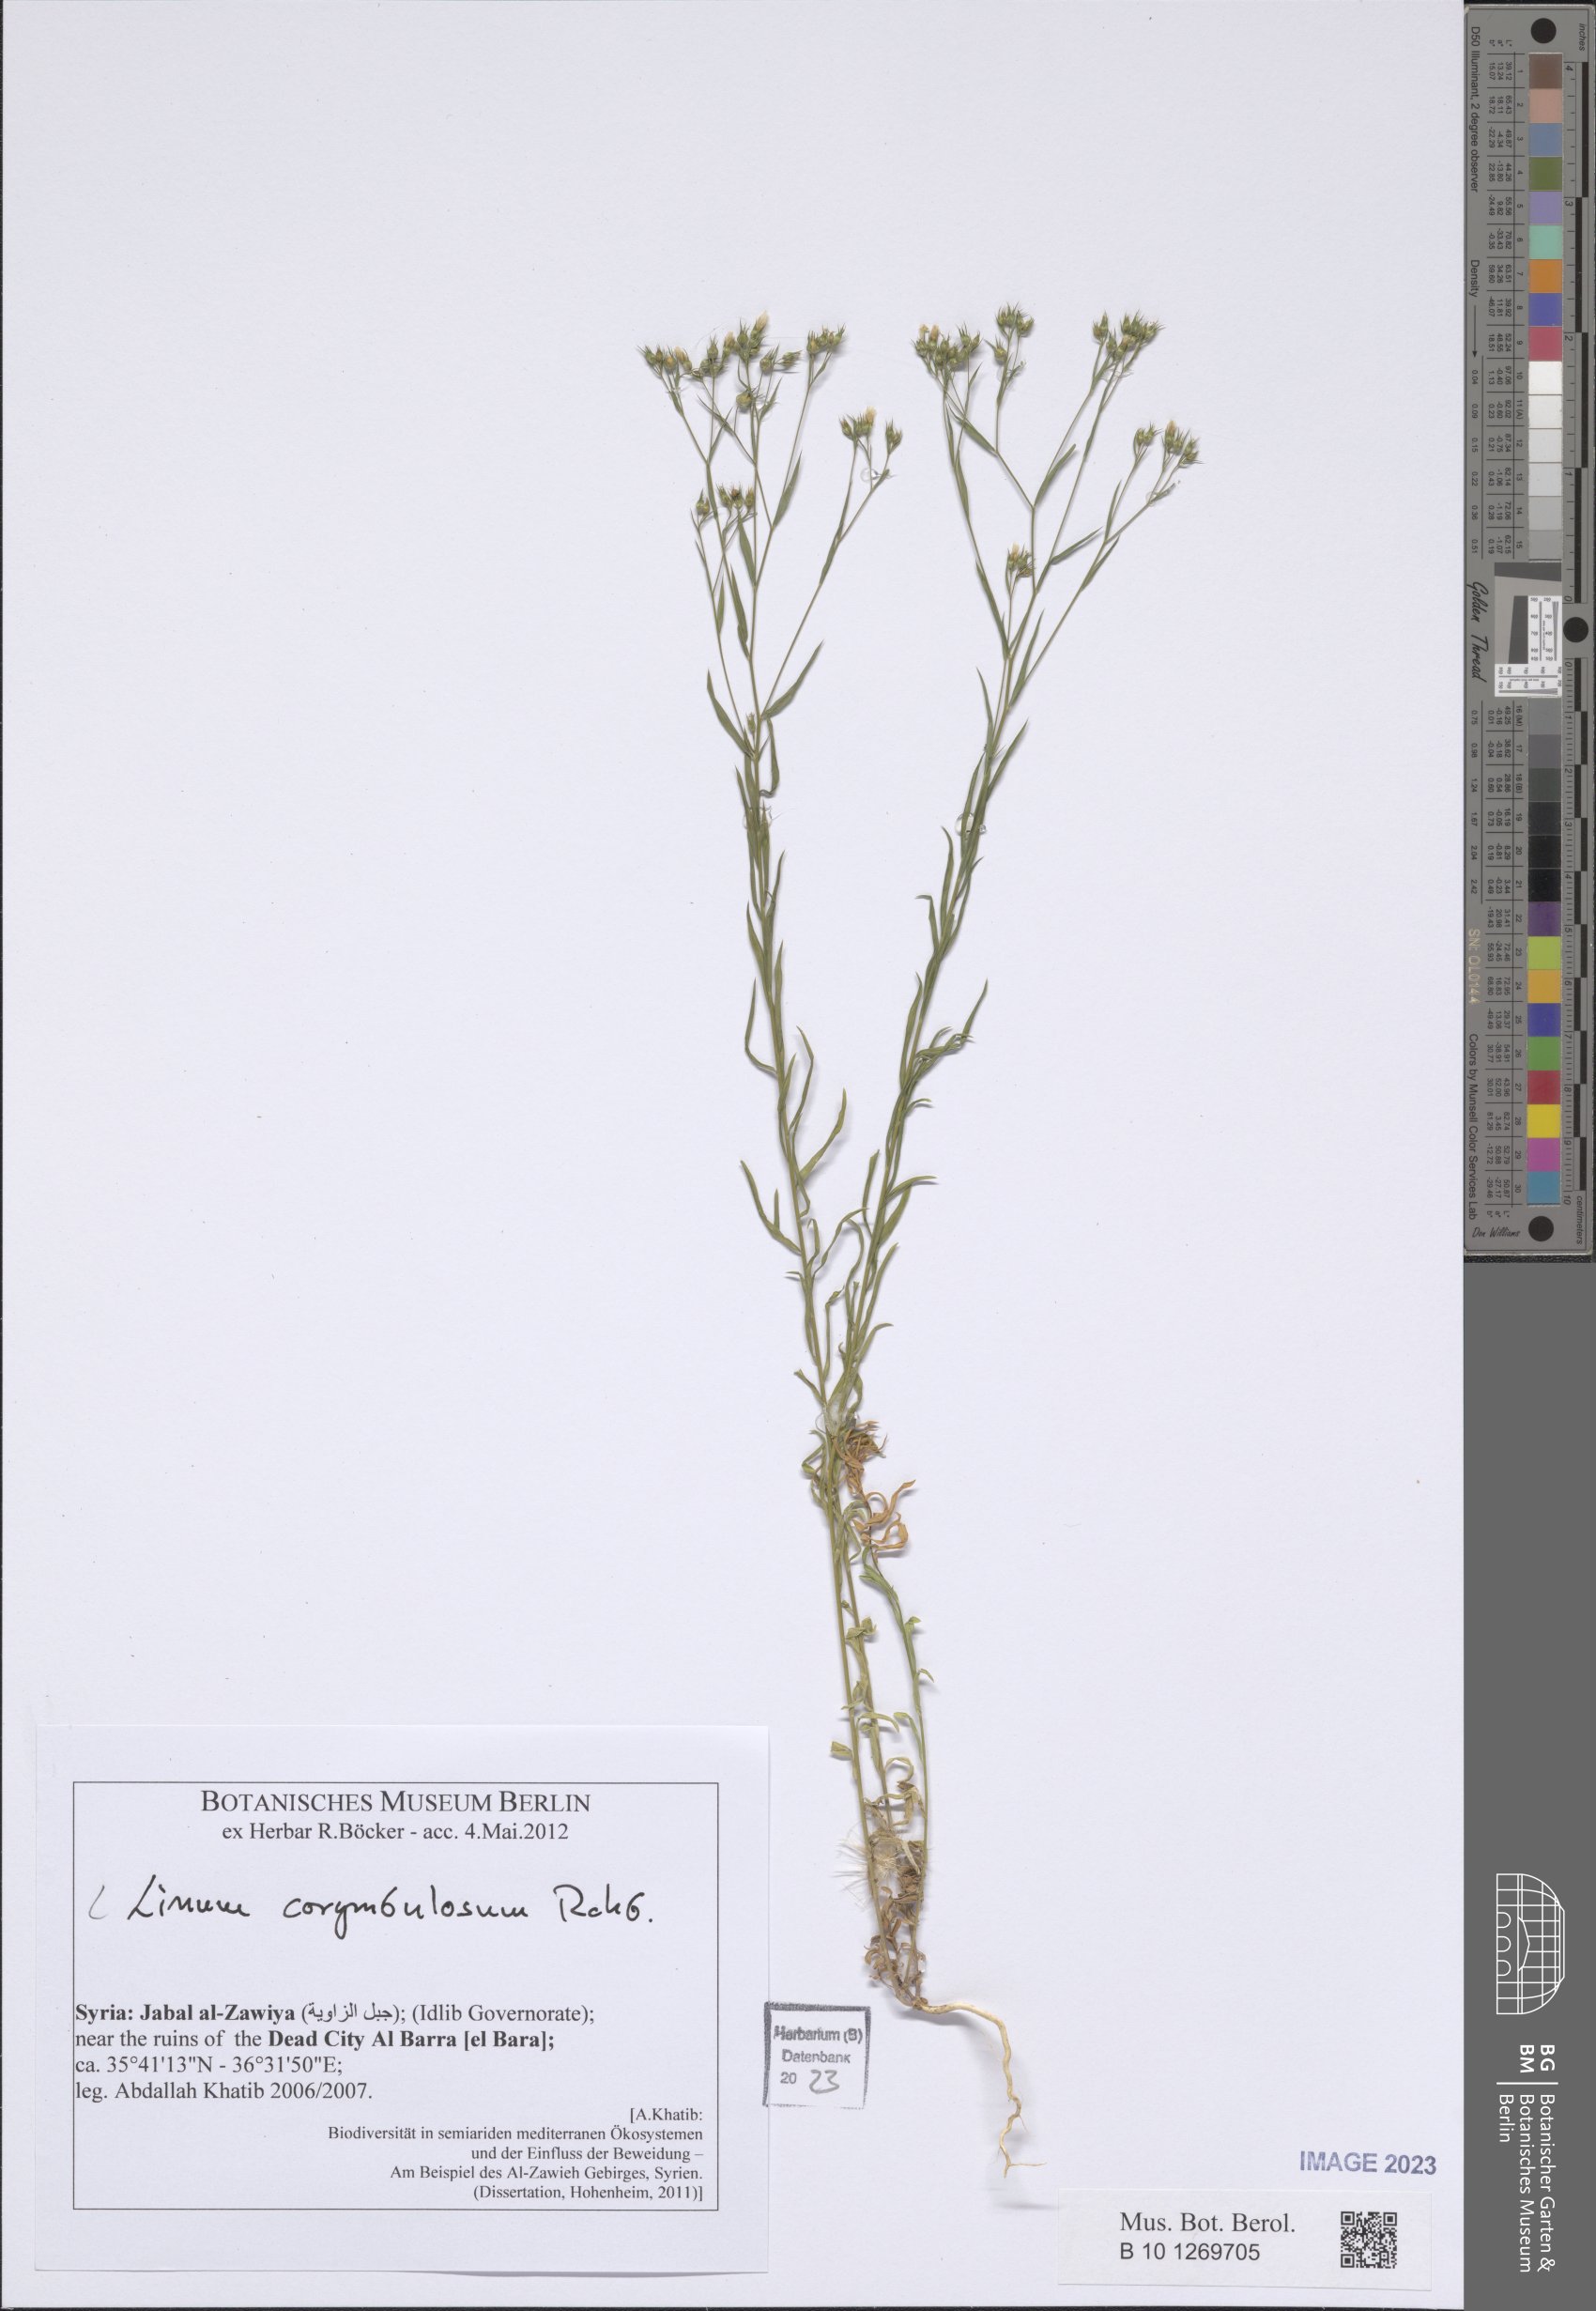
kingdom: Plantae
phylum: Tracheophyta
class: Magnoliopsida
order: Malpighiales
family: Linaceae
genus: Linum
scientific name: Linum corymbulosum
